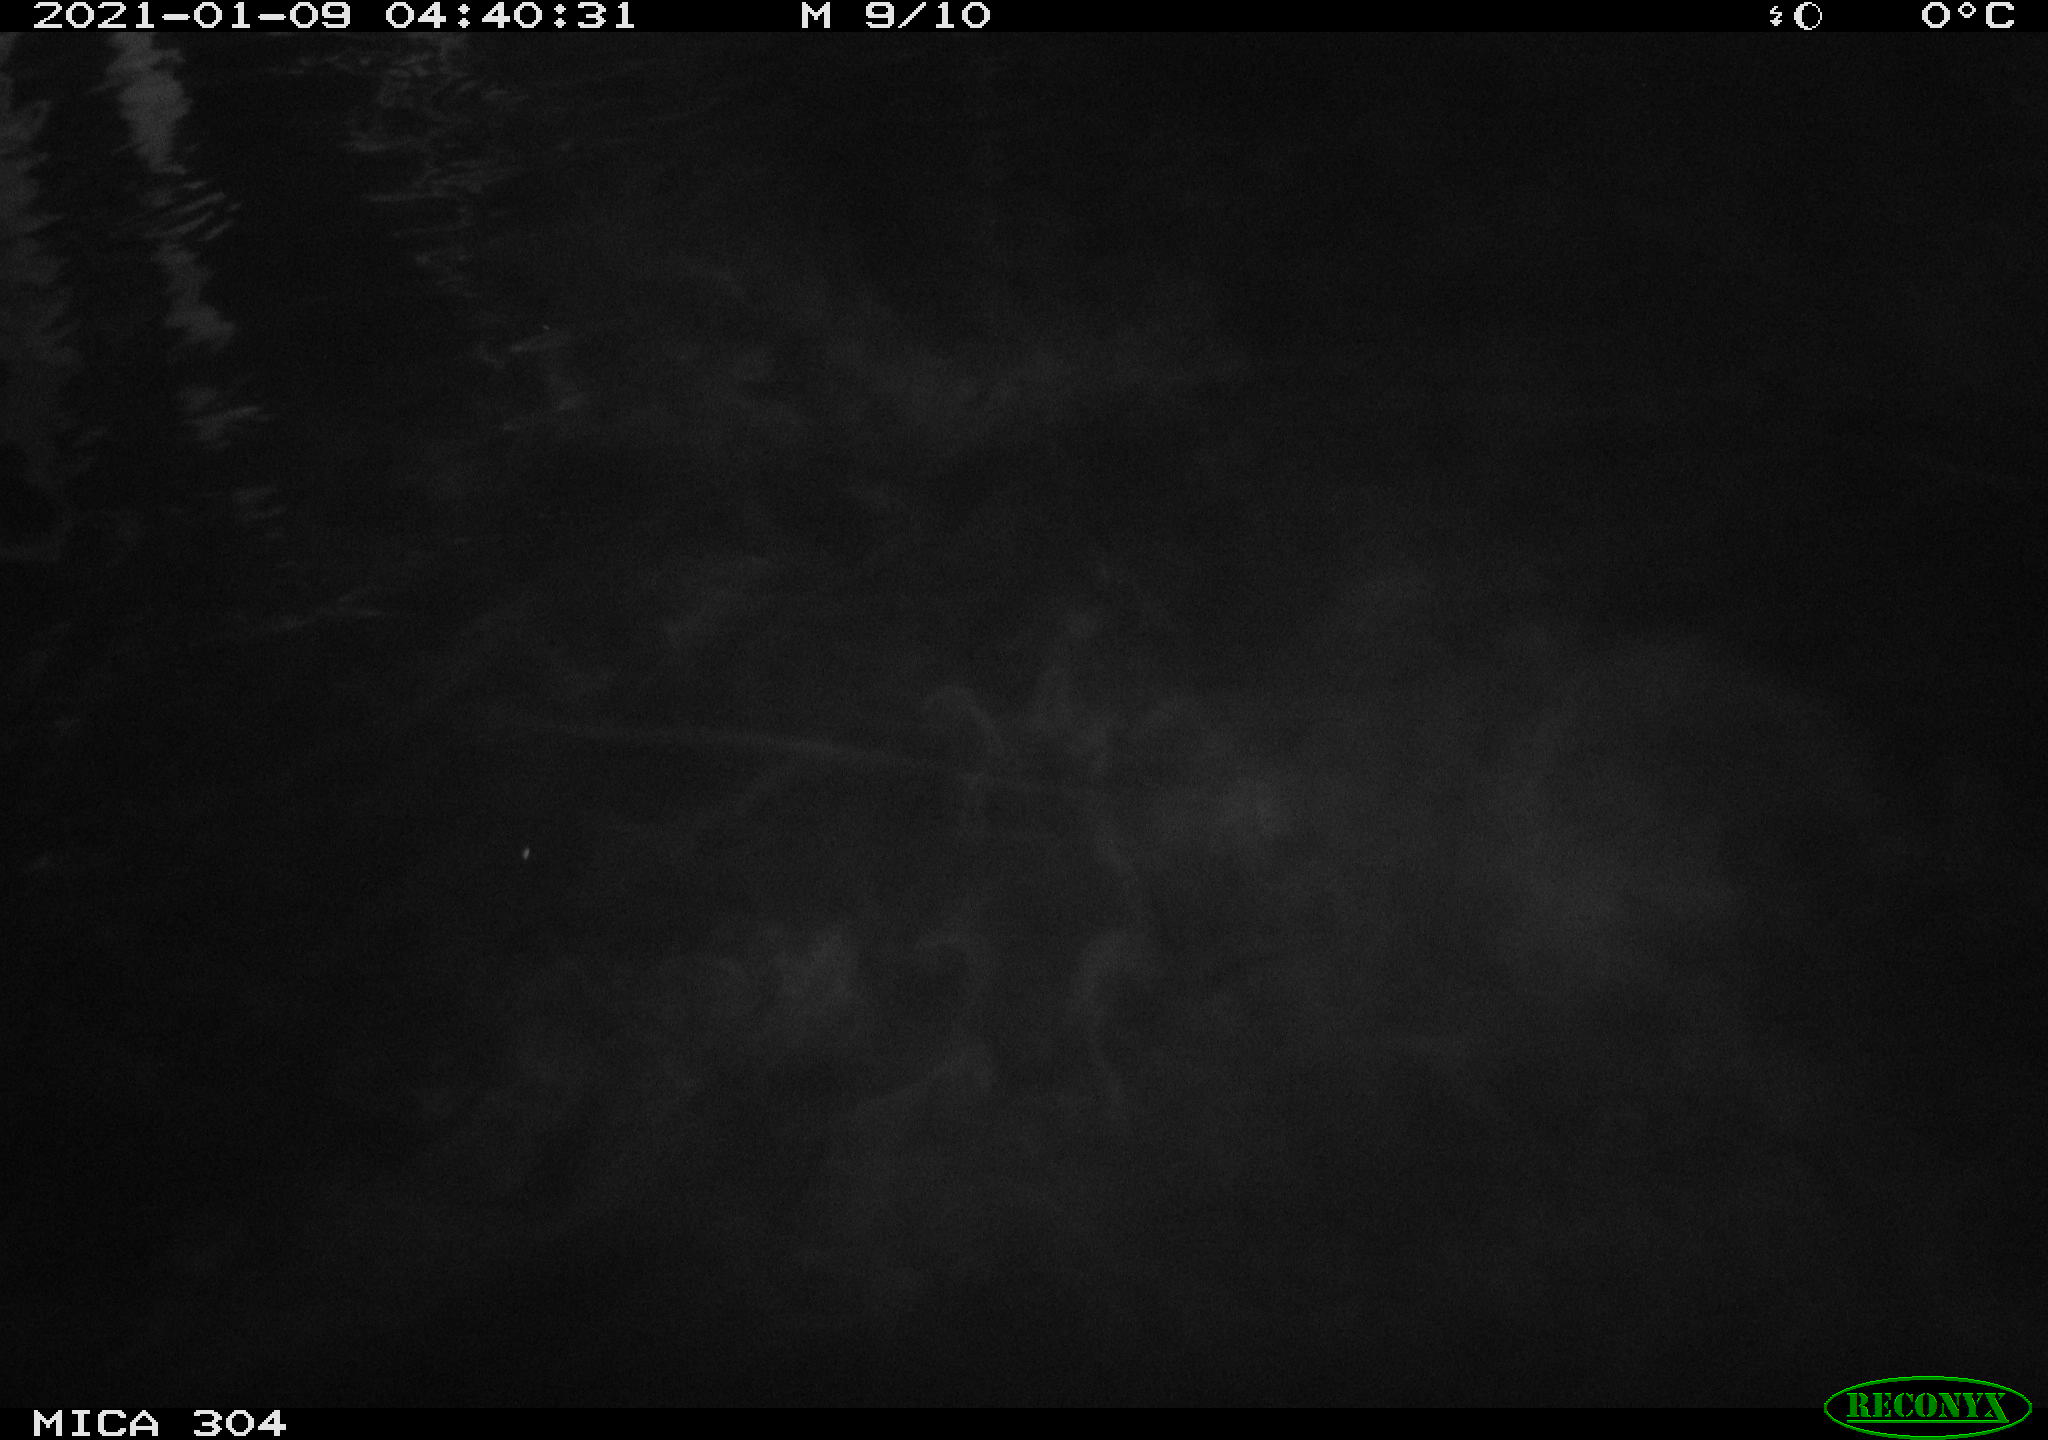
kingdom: Animalia
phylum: Chordata
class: Aves
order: Anseriformes
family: Anatidae
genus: Anas
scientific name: Anas platyrhynchos
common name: Mallard
